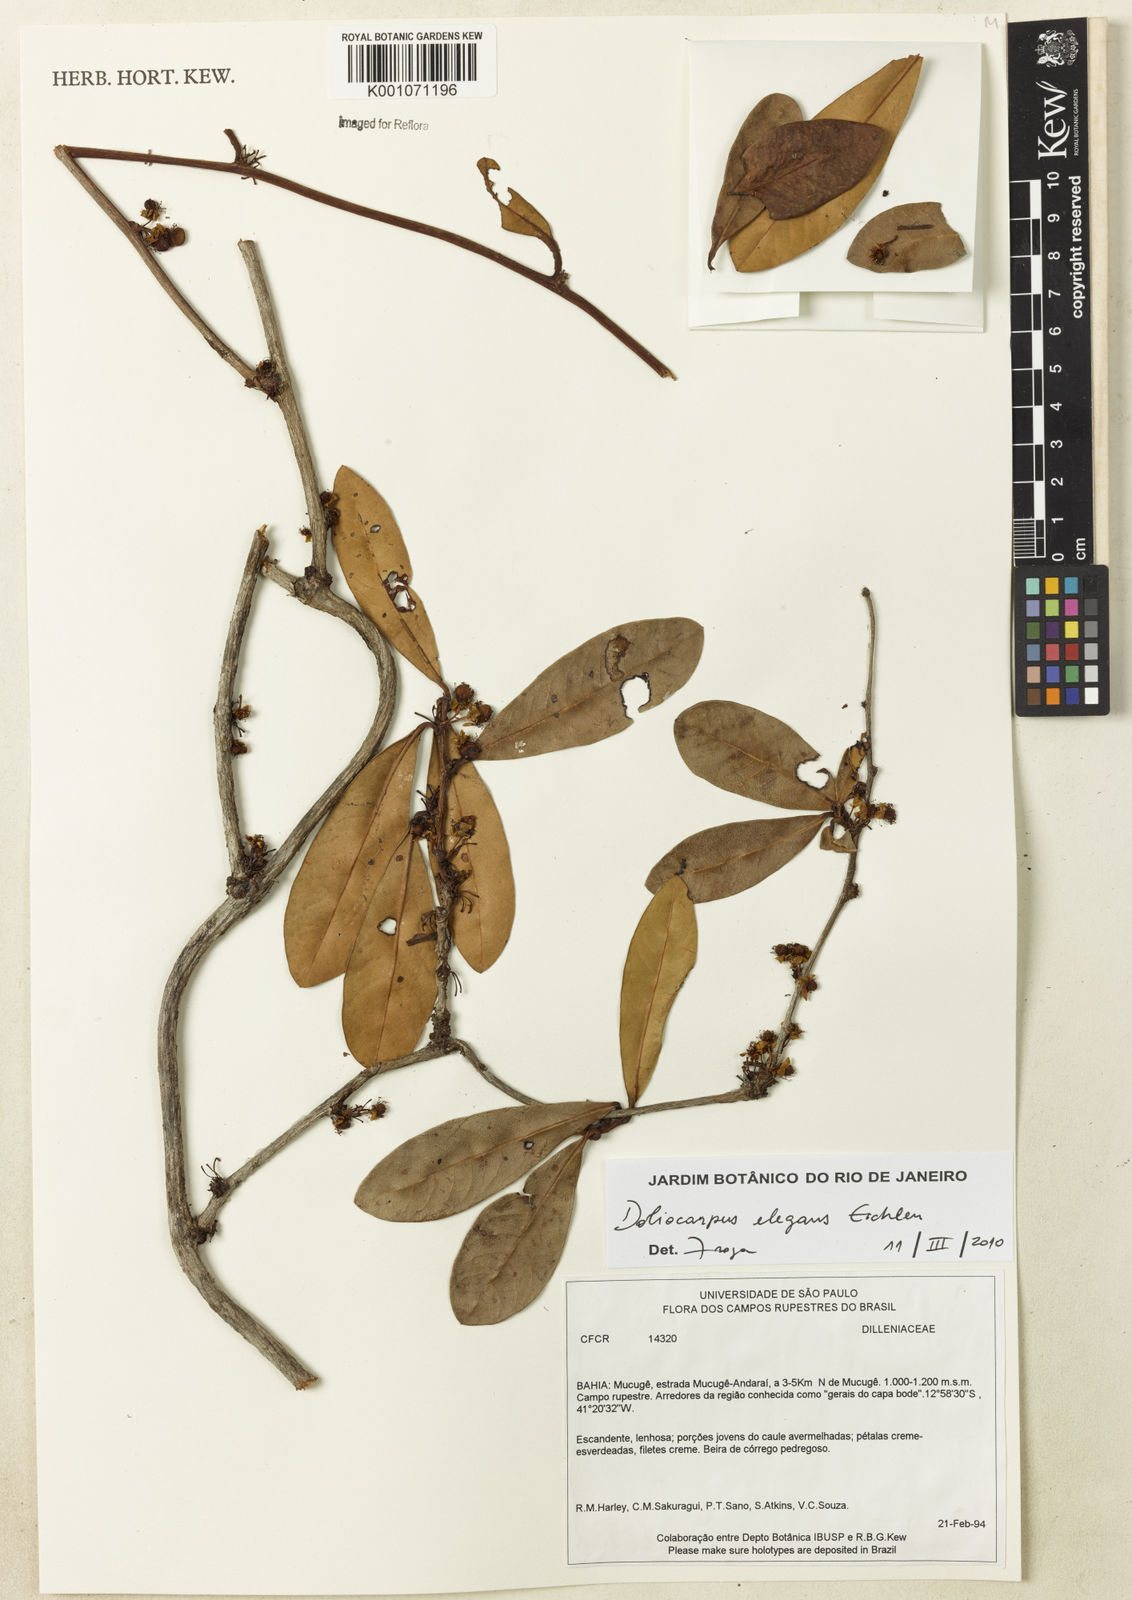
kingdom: Plantae
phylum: Tracheophyta
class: Magnoliopsida
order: Dilleniales
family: Dilleniaceae
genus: Doliocarpus
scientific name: Doliocarpus elegans
